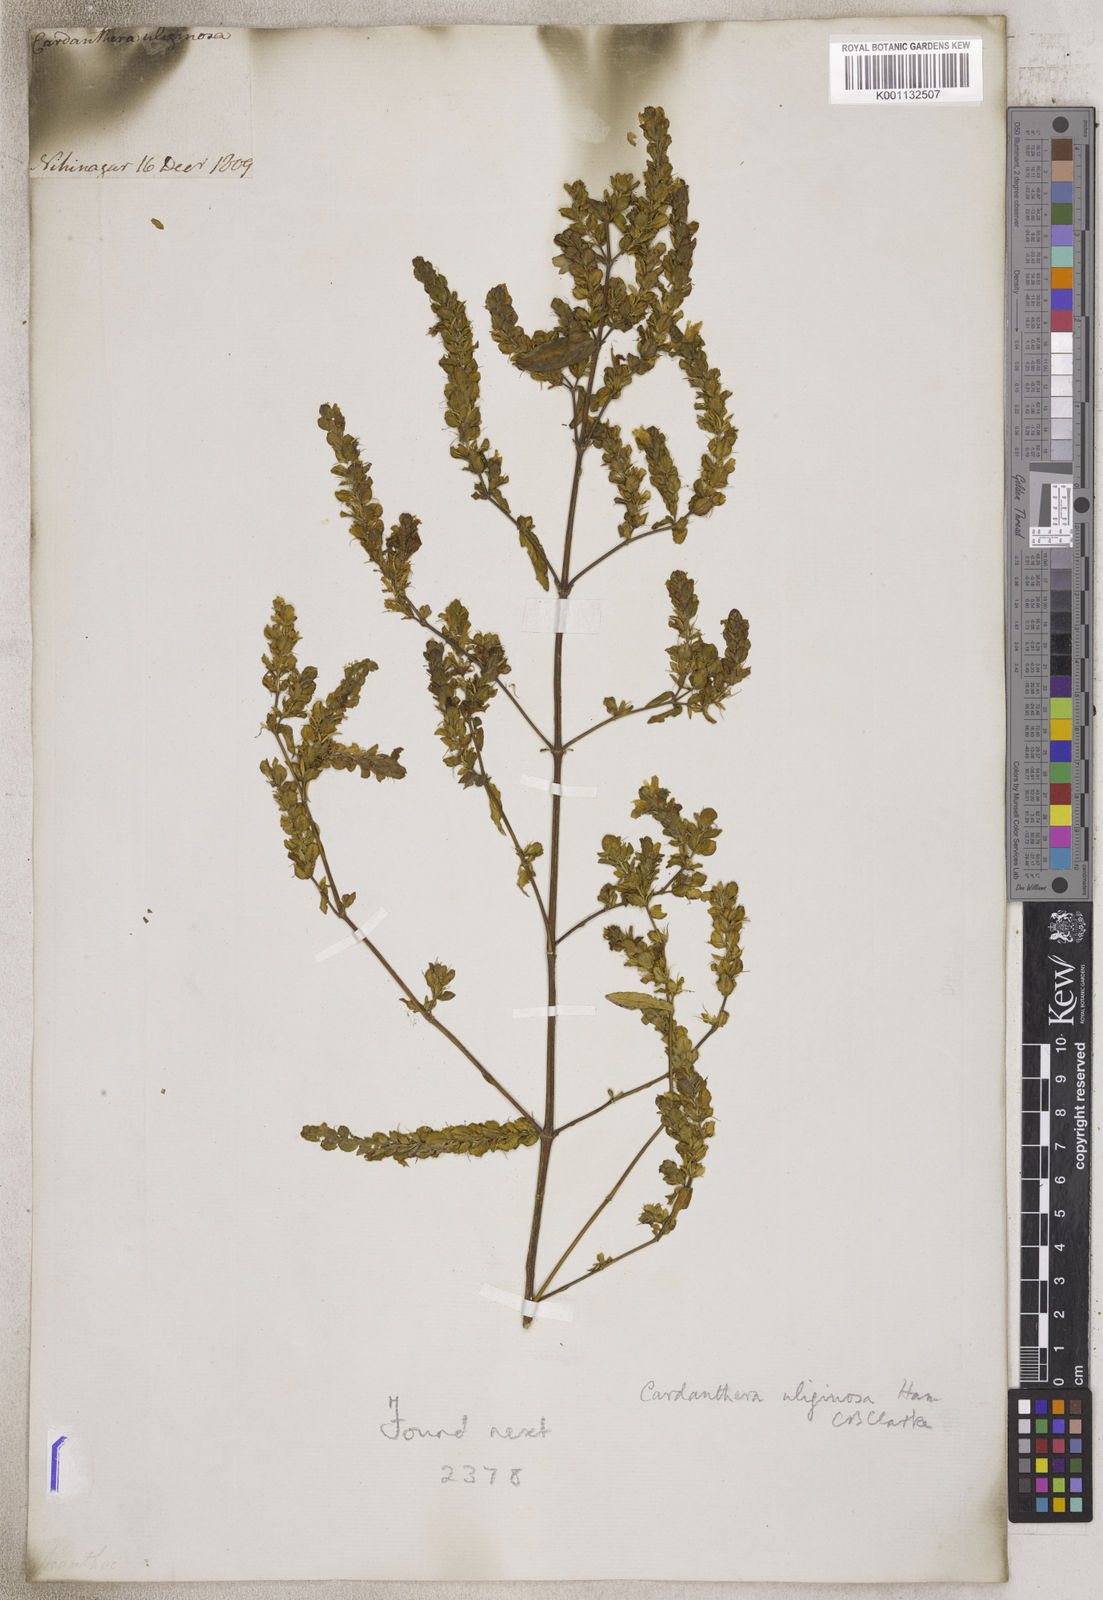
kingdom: Plantae
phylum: Tracheophyta
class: Magnoliopsida
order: Lamiales
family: Acanthaceae
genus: Cardanthera
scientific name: Cardanthera
